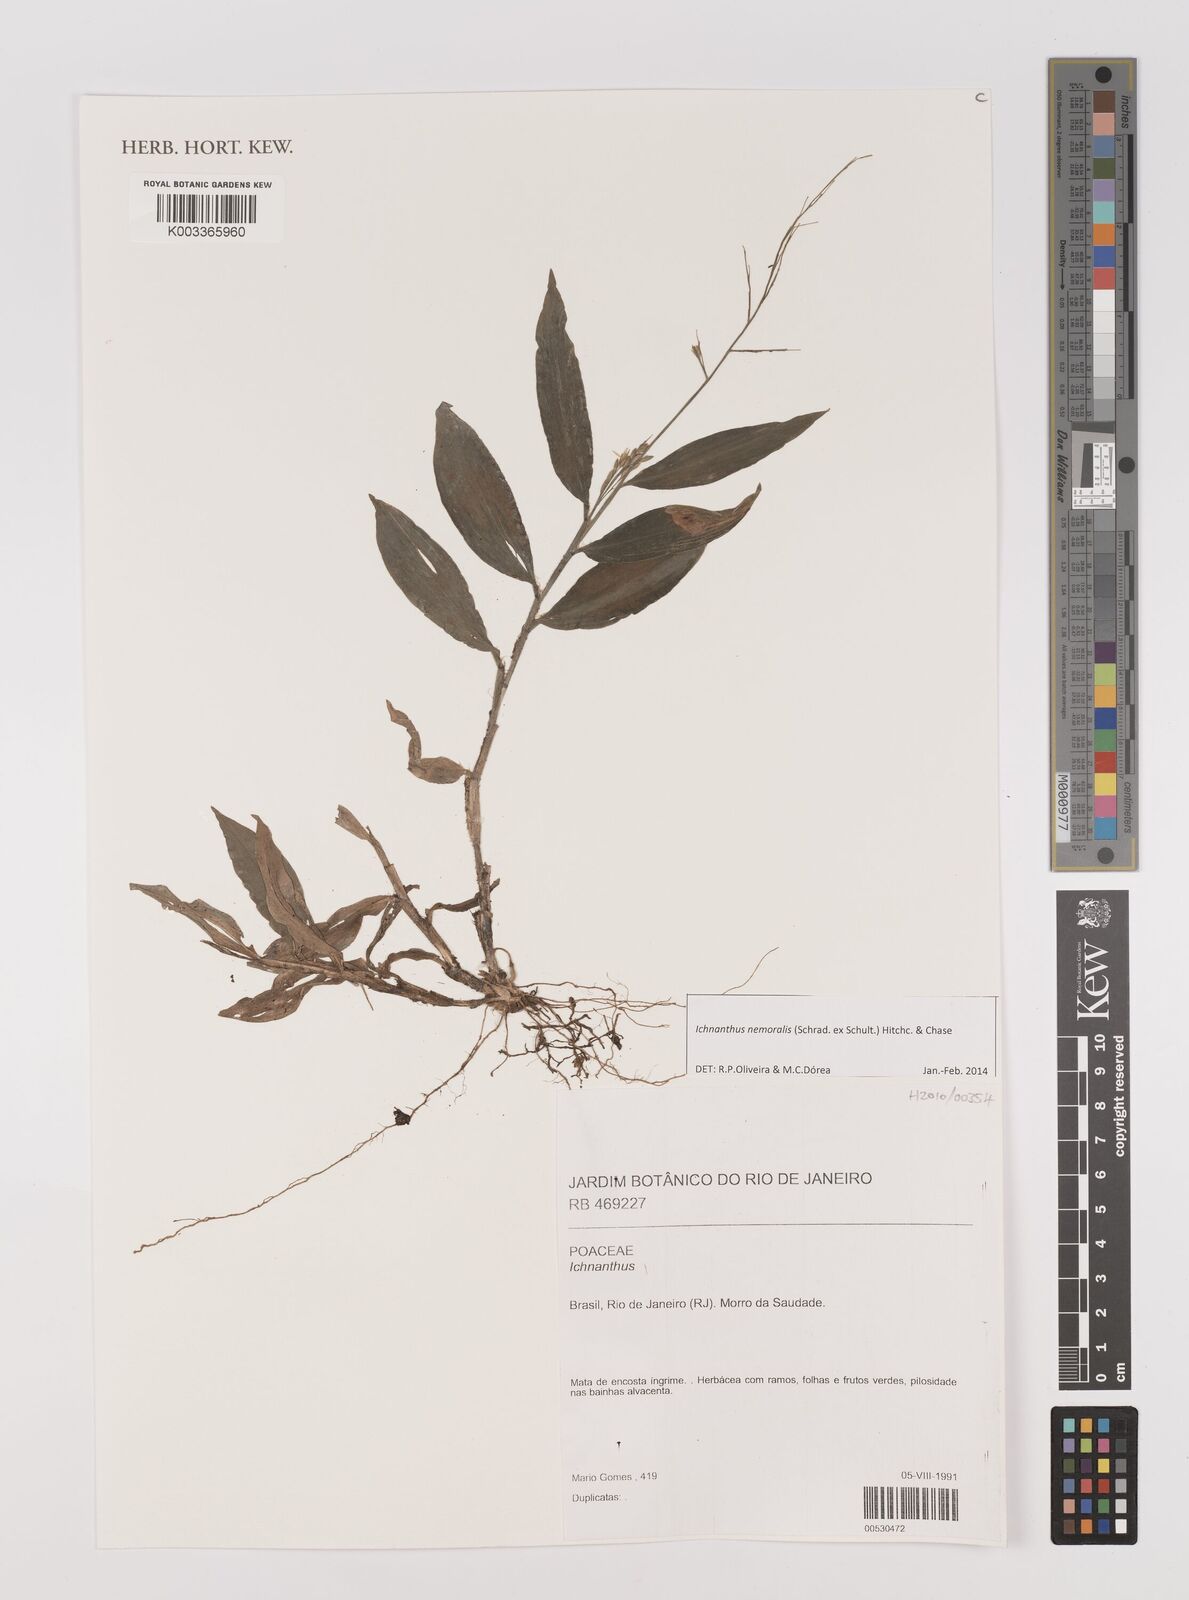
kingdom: Plantae
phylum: Tracheophyta
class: Liliopsida
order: Poales
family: Poaceae
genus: Ichnanthus
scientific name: Ichnanthus nemoralis
